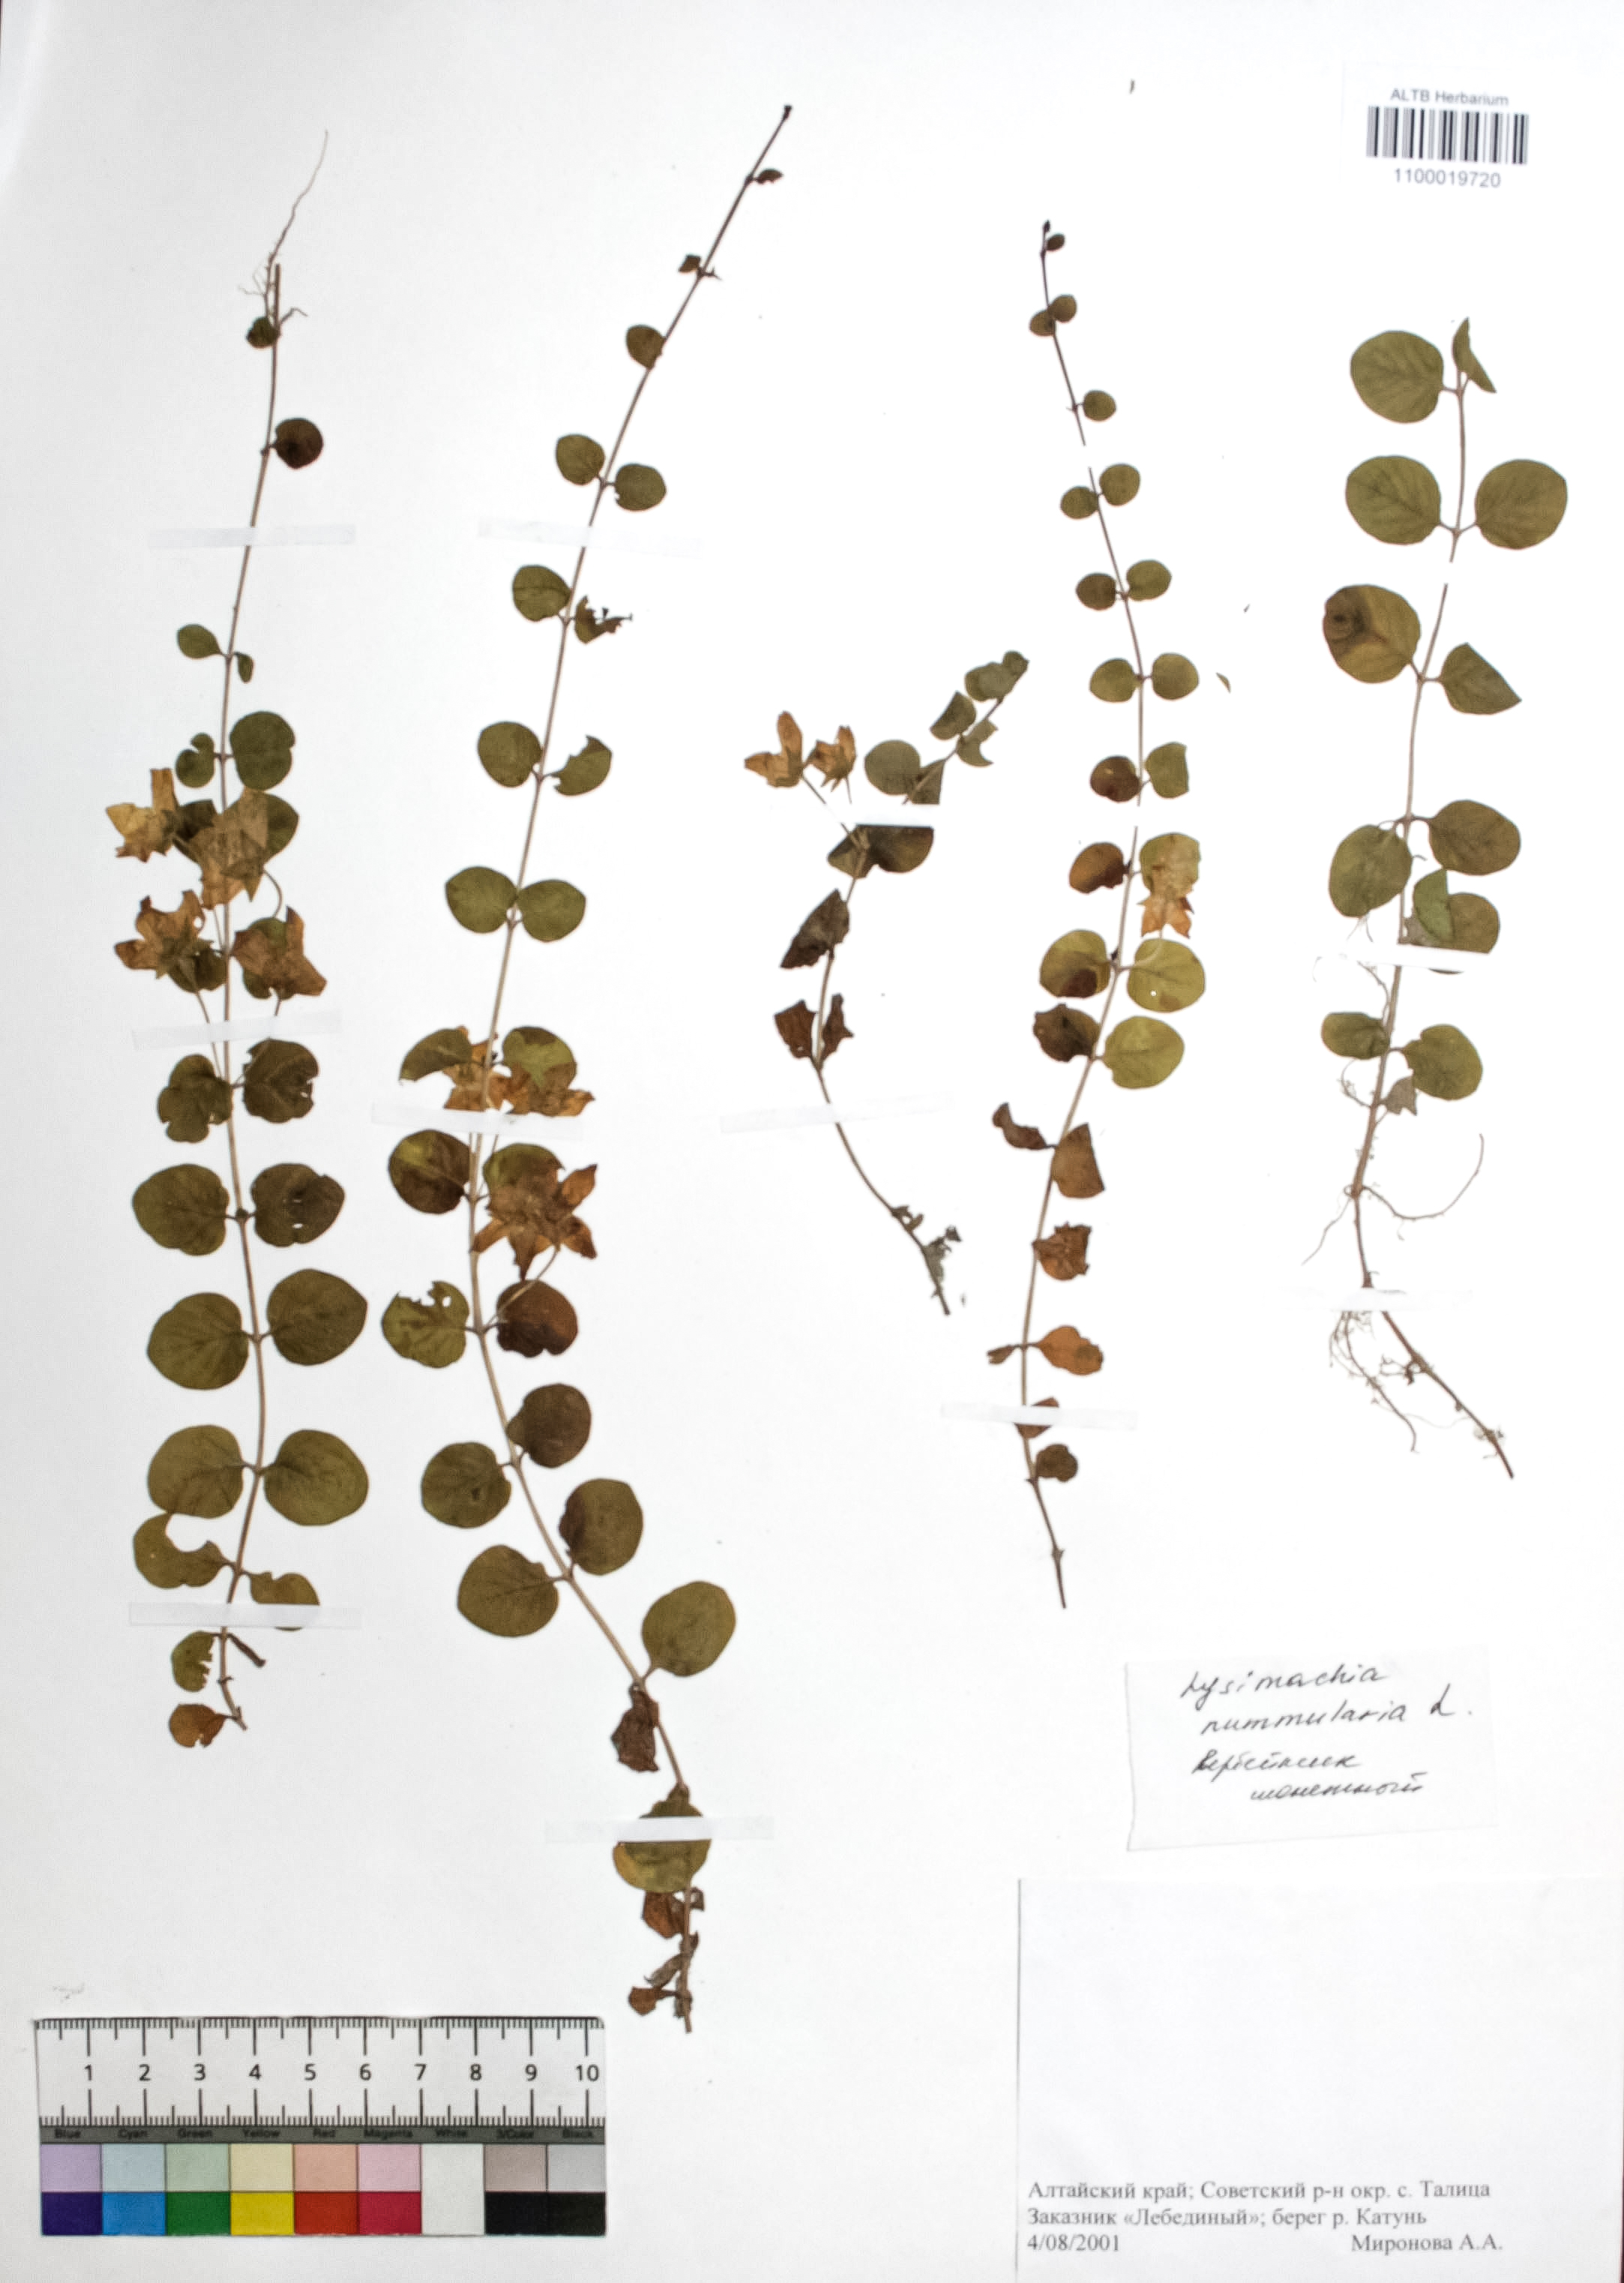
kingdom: Plantae
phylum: Tracheophyta
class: Magnoliopsida
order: Ericales
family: Primulaceae
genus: Lysimachia
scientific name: Lysimachia nummularia
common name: Moneywort
